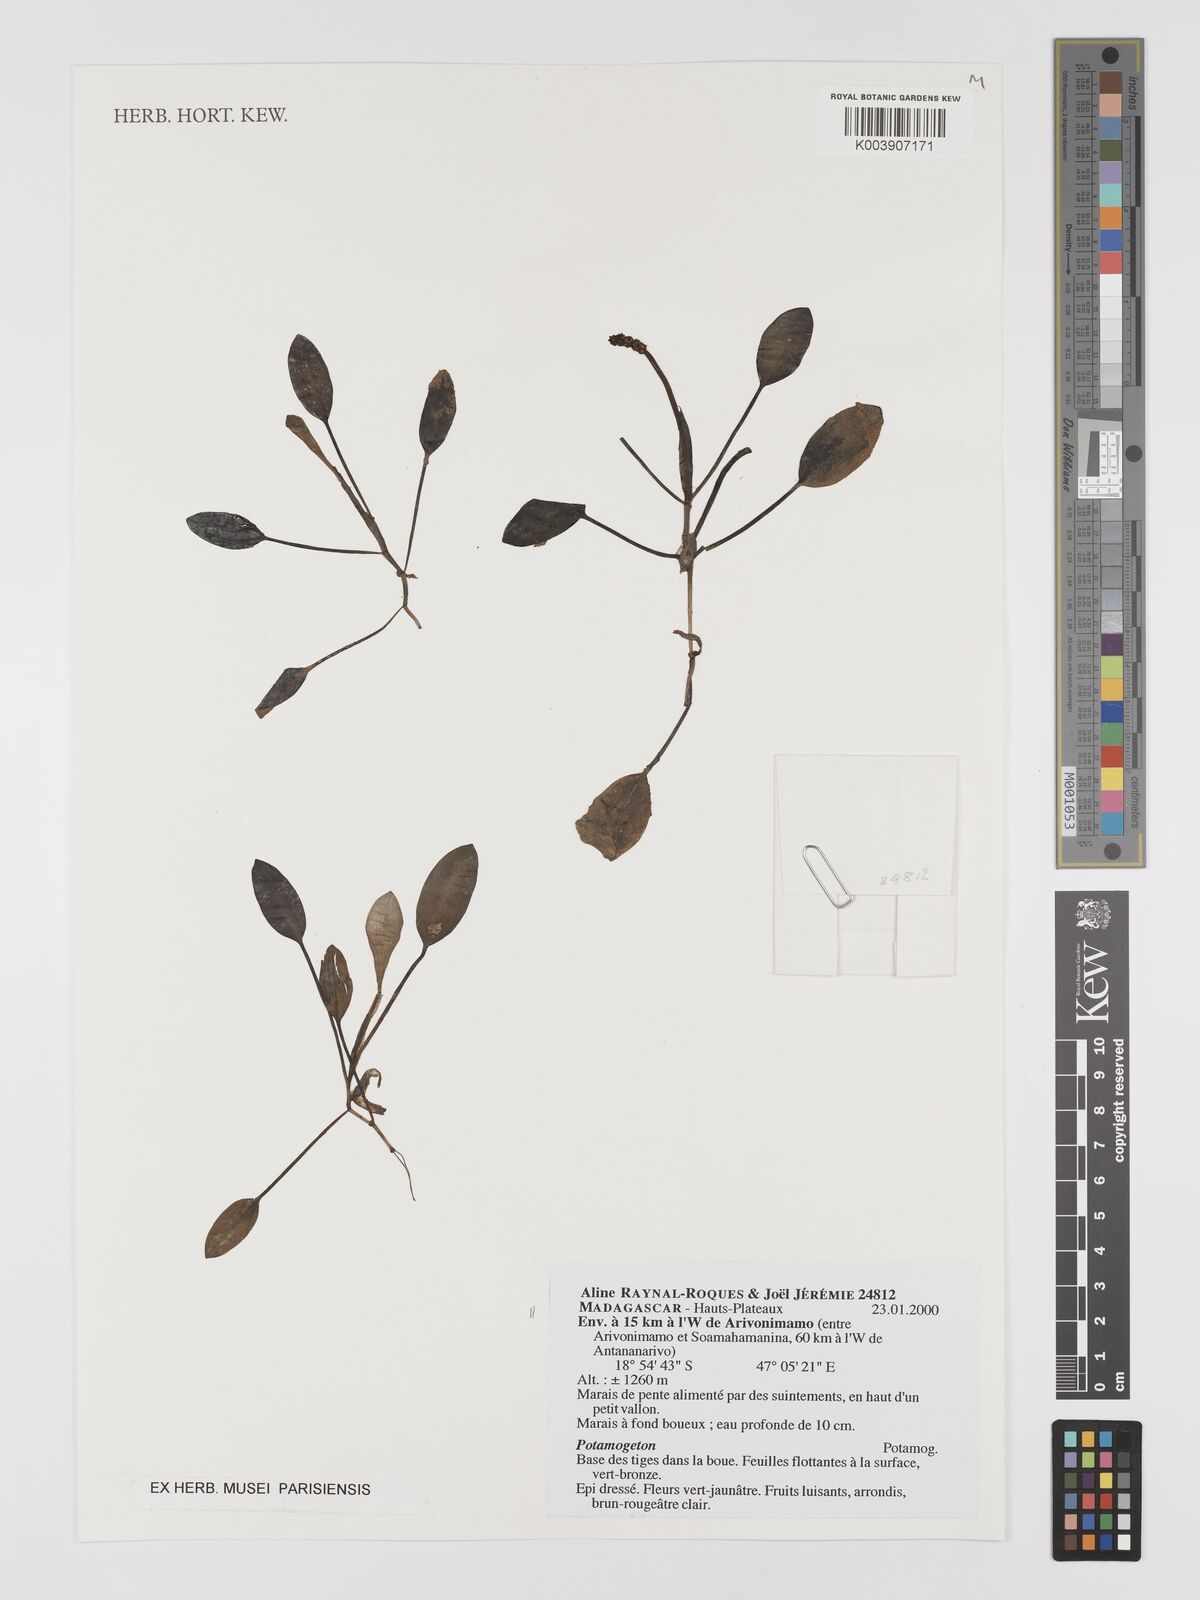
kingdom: Plantae
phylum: Tracheophyta
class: Liliopsida
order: Alismatales
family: Potamogetonaceae
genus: Potamogeton
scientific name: Potamogeton
